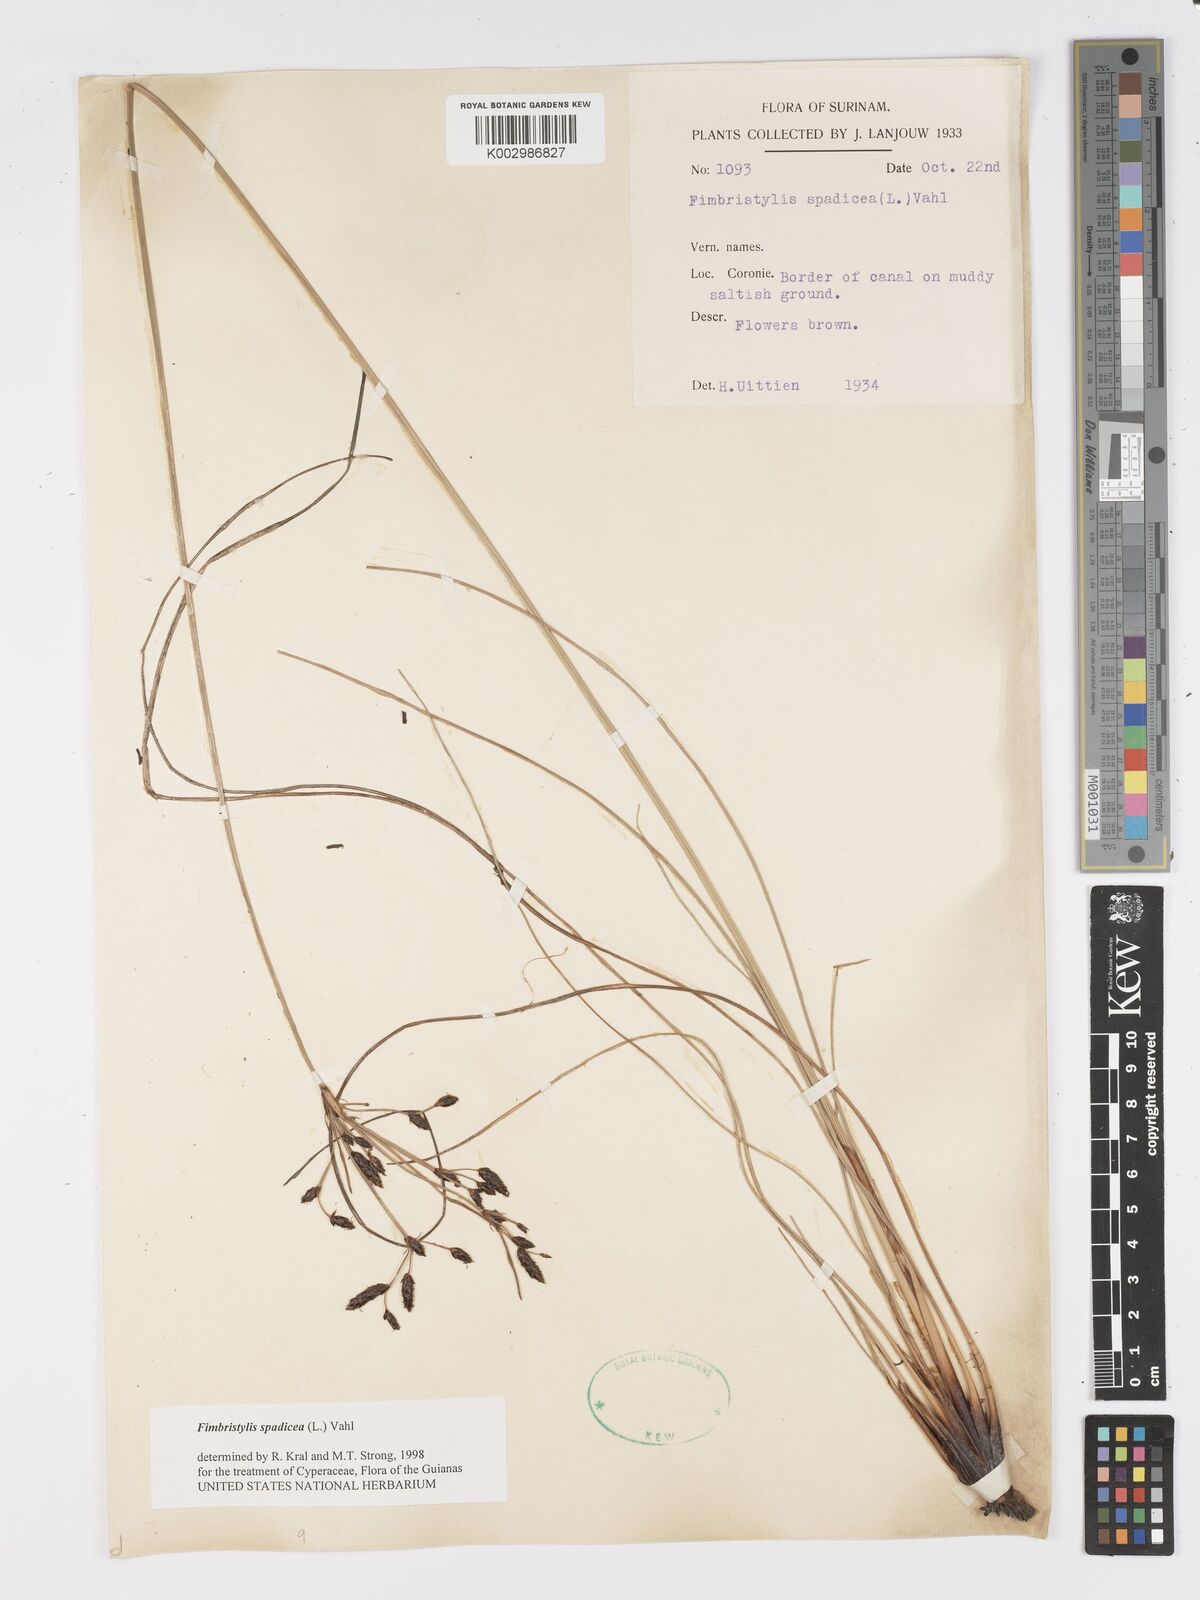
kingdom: Plantae
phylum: Tracheophyta
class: Liliopsida
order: Poales
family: Cyperaceae
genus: Fimbristylis
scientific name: Fimbristylis spadicea
